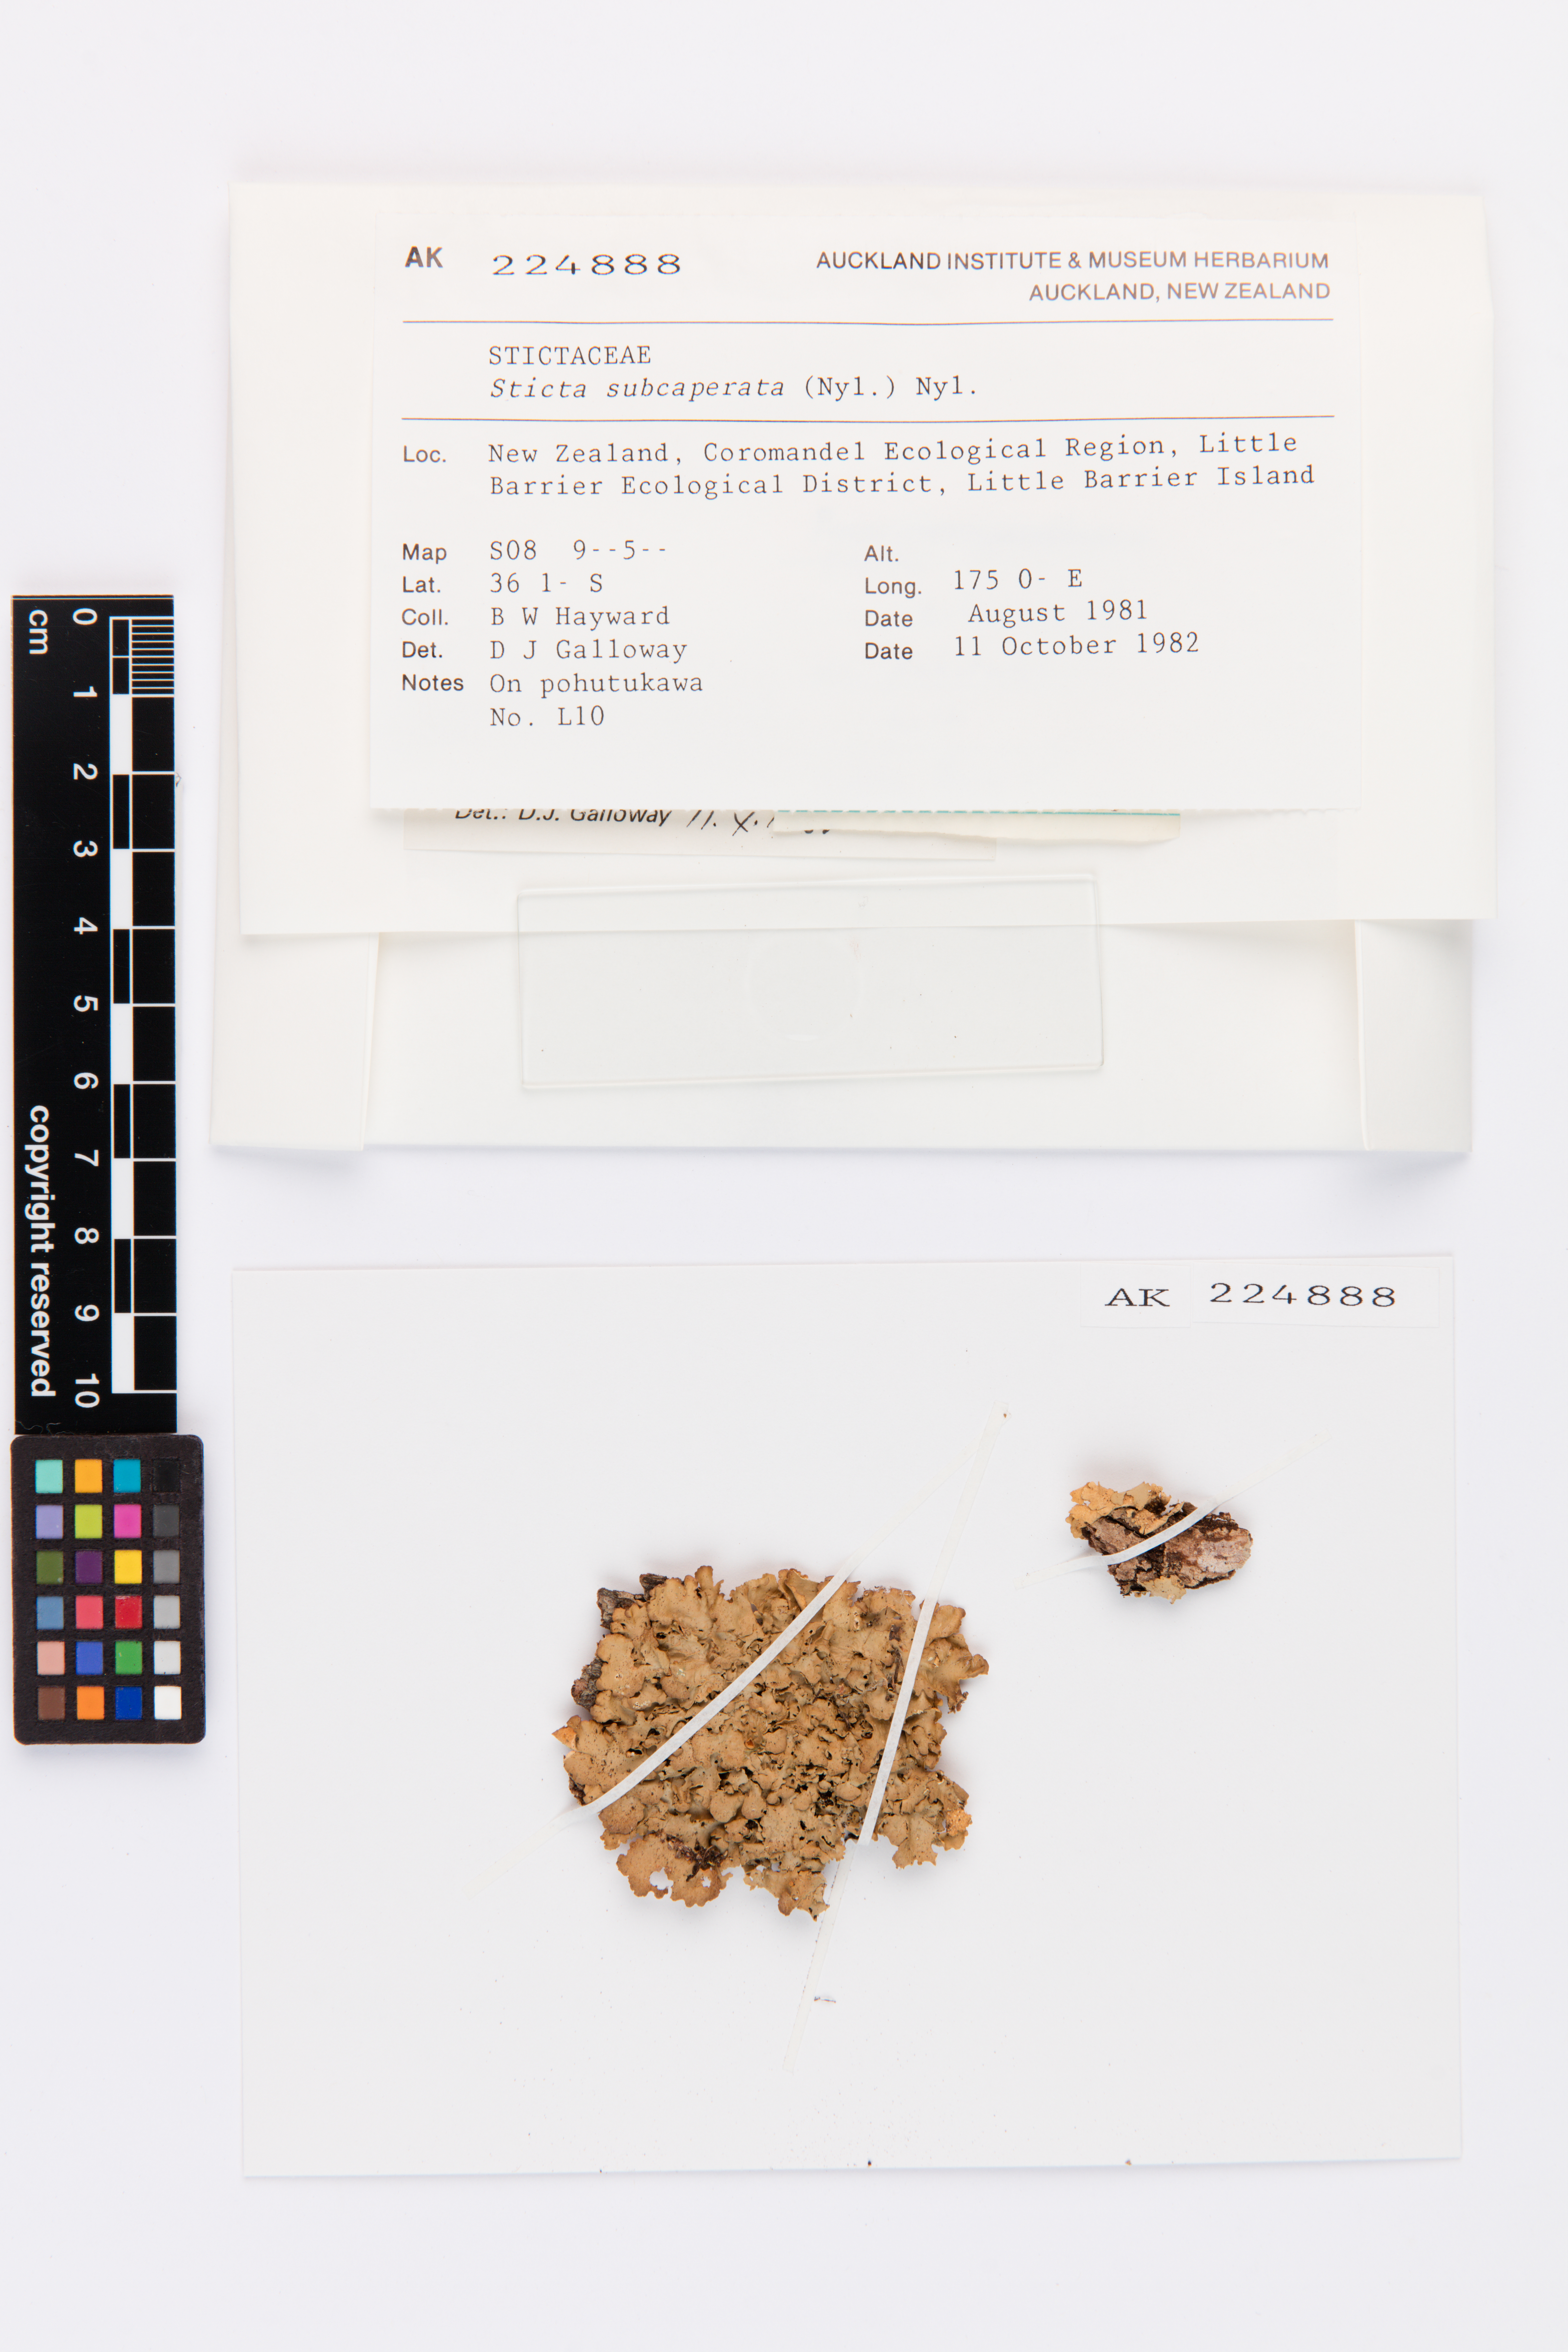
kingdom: Fungi
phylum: Ascomycota
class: Lecanoromycetes
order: Peltigerales
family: Lobariaceae
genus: Sticta
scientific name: Sticta subcaperata
